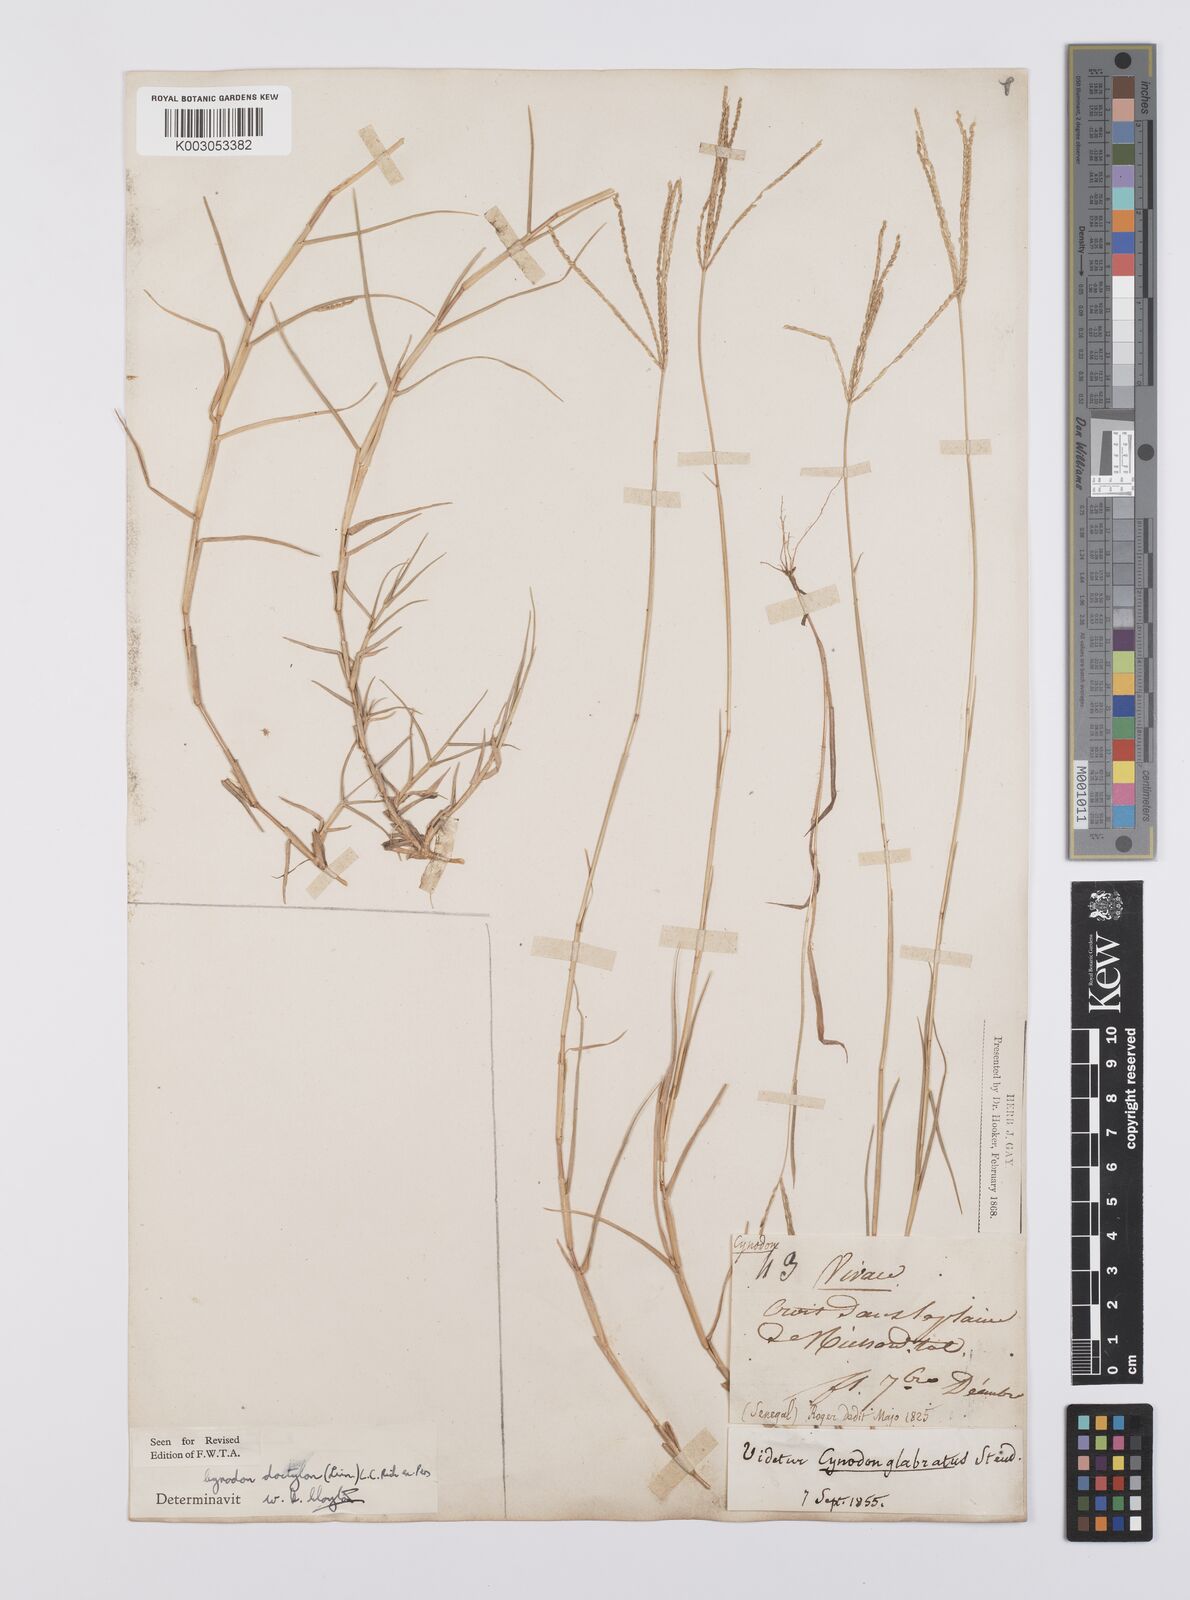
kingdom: Plantae
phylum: Tracheophyta
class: Liliopsida
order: Poales
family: Poaceae
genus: Cynodon
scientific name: Cynodon dactylon
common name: Bermuda grass
